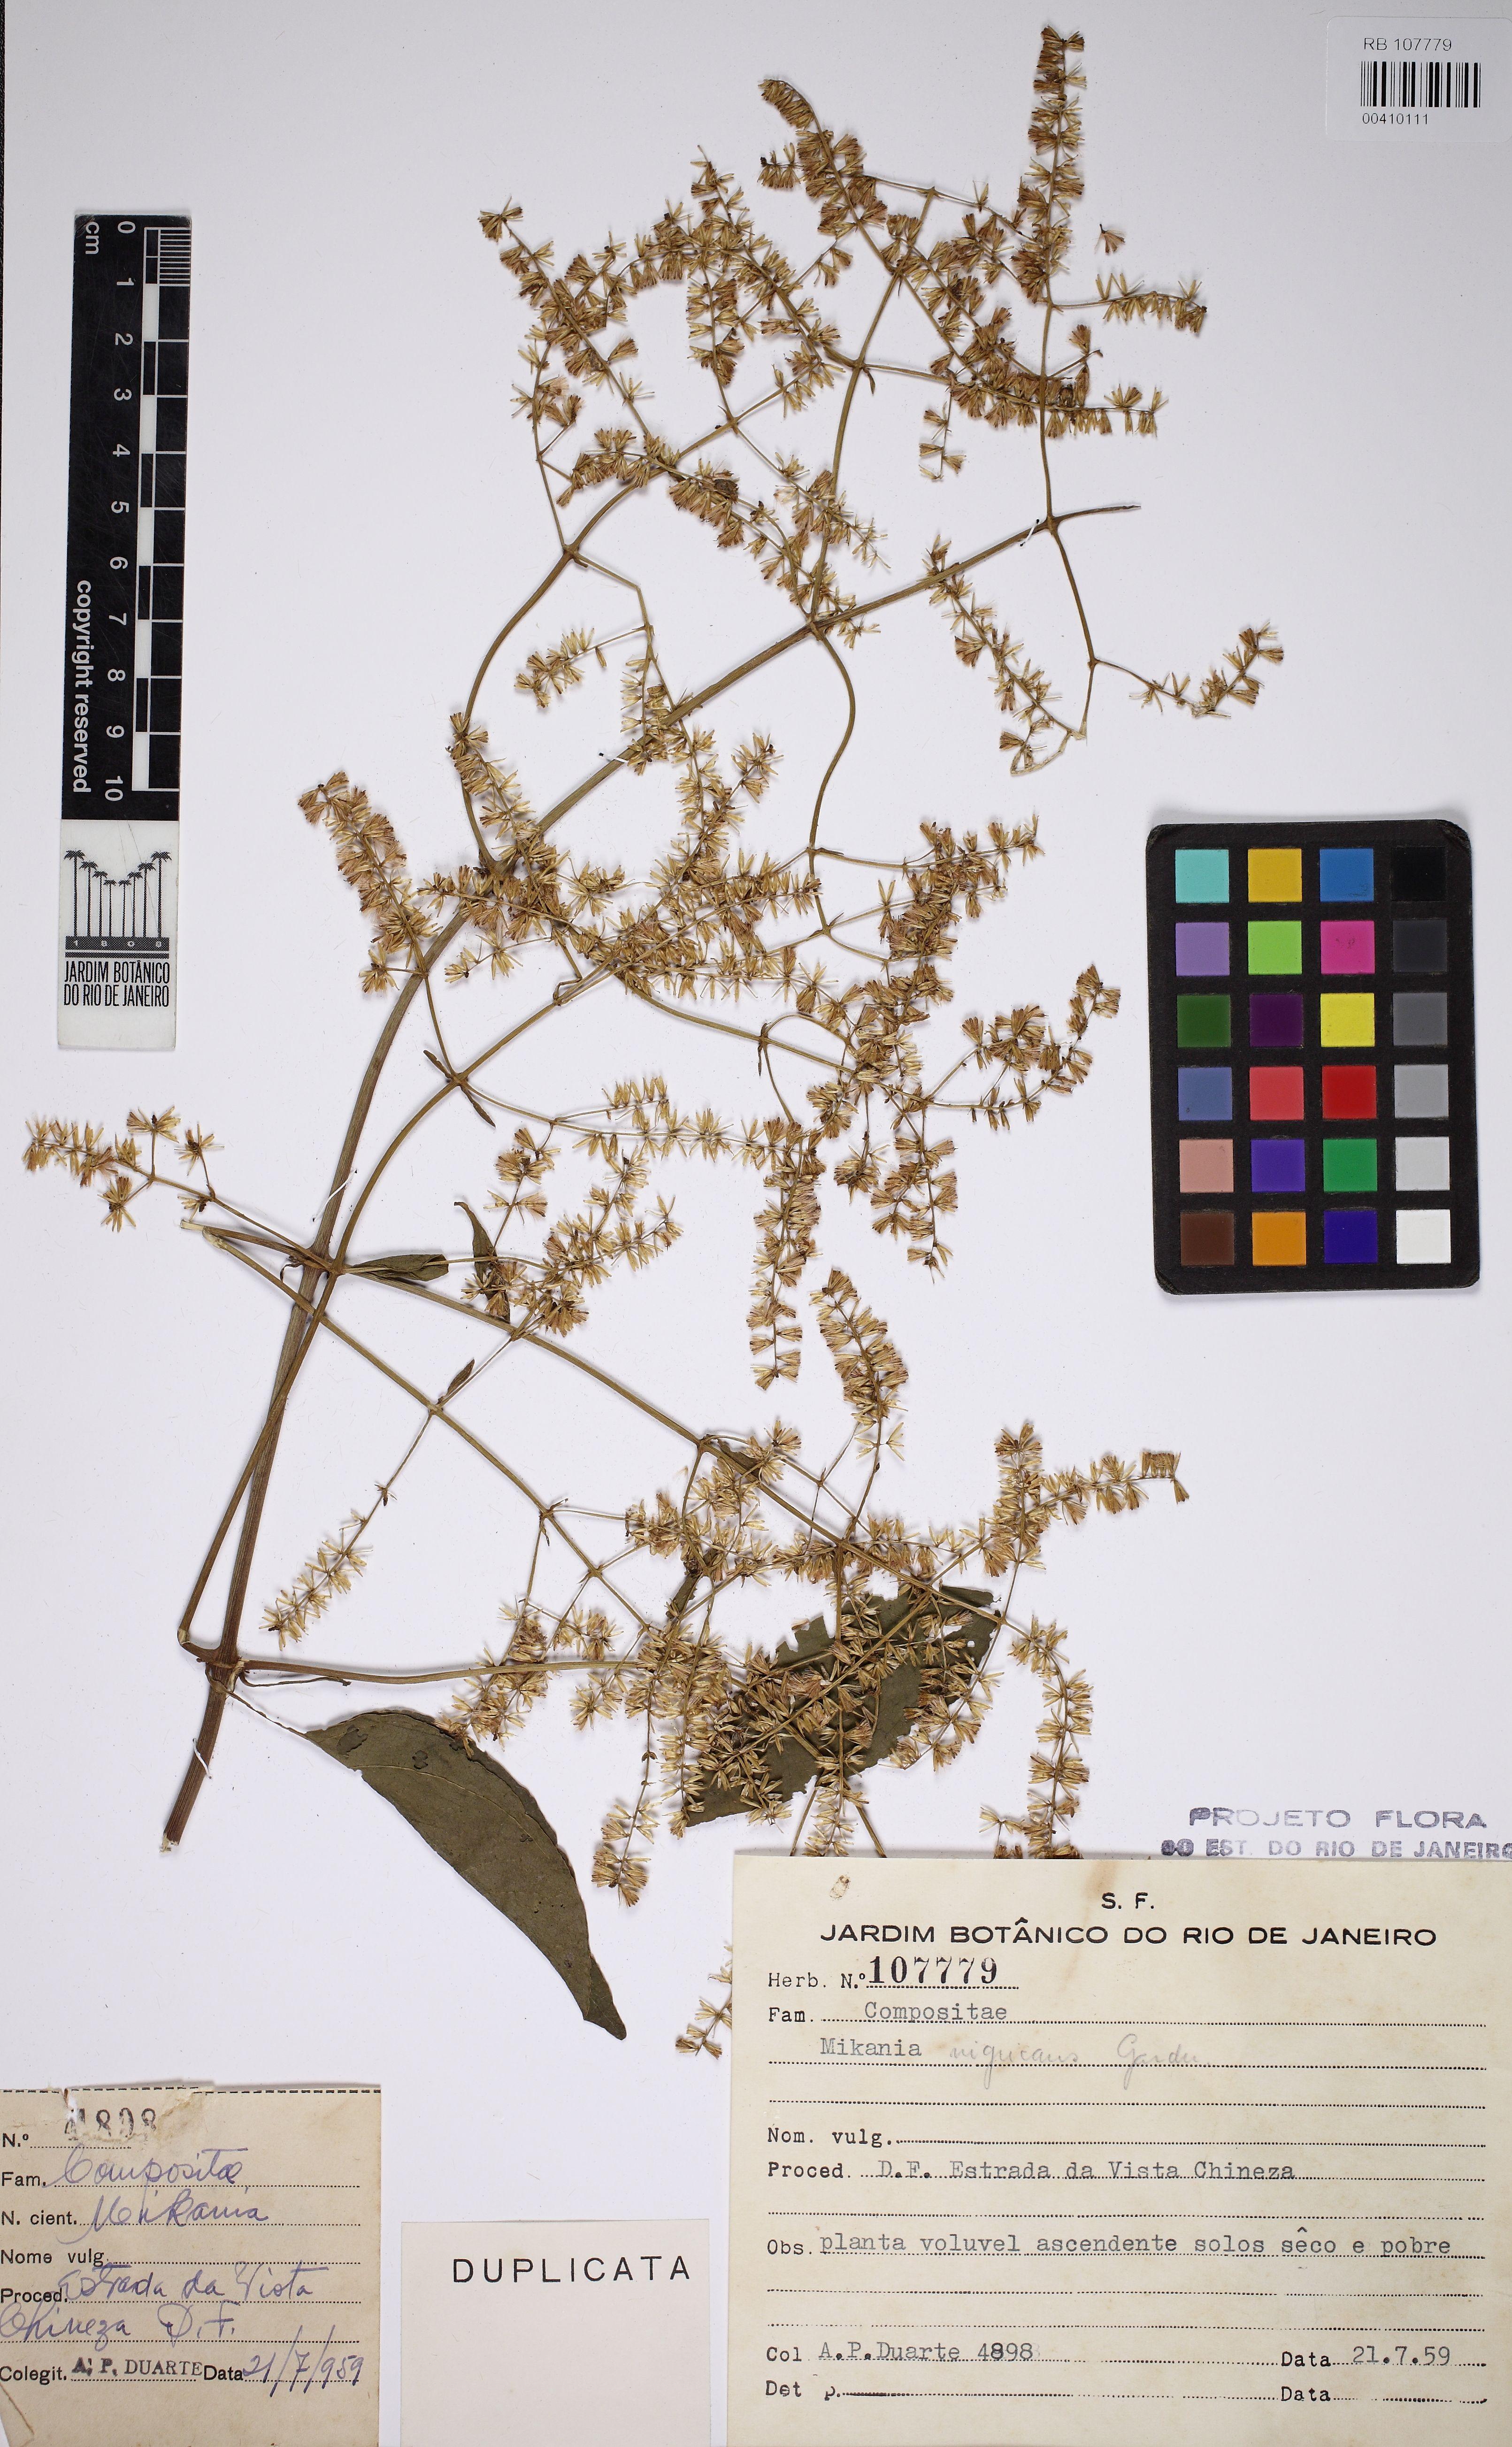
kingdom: Plantae
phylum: Tracheophyta
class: Magnoliopsida
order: Asterales
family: Asteraceae
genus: Mikania
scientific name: Mikania nigricans
